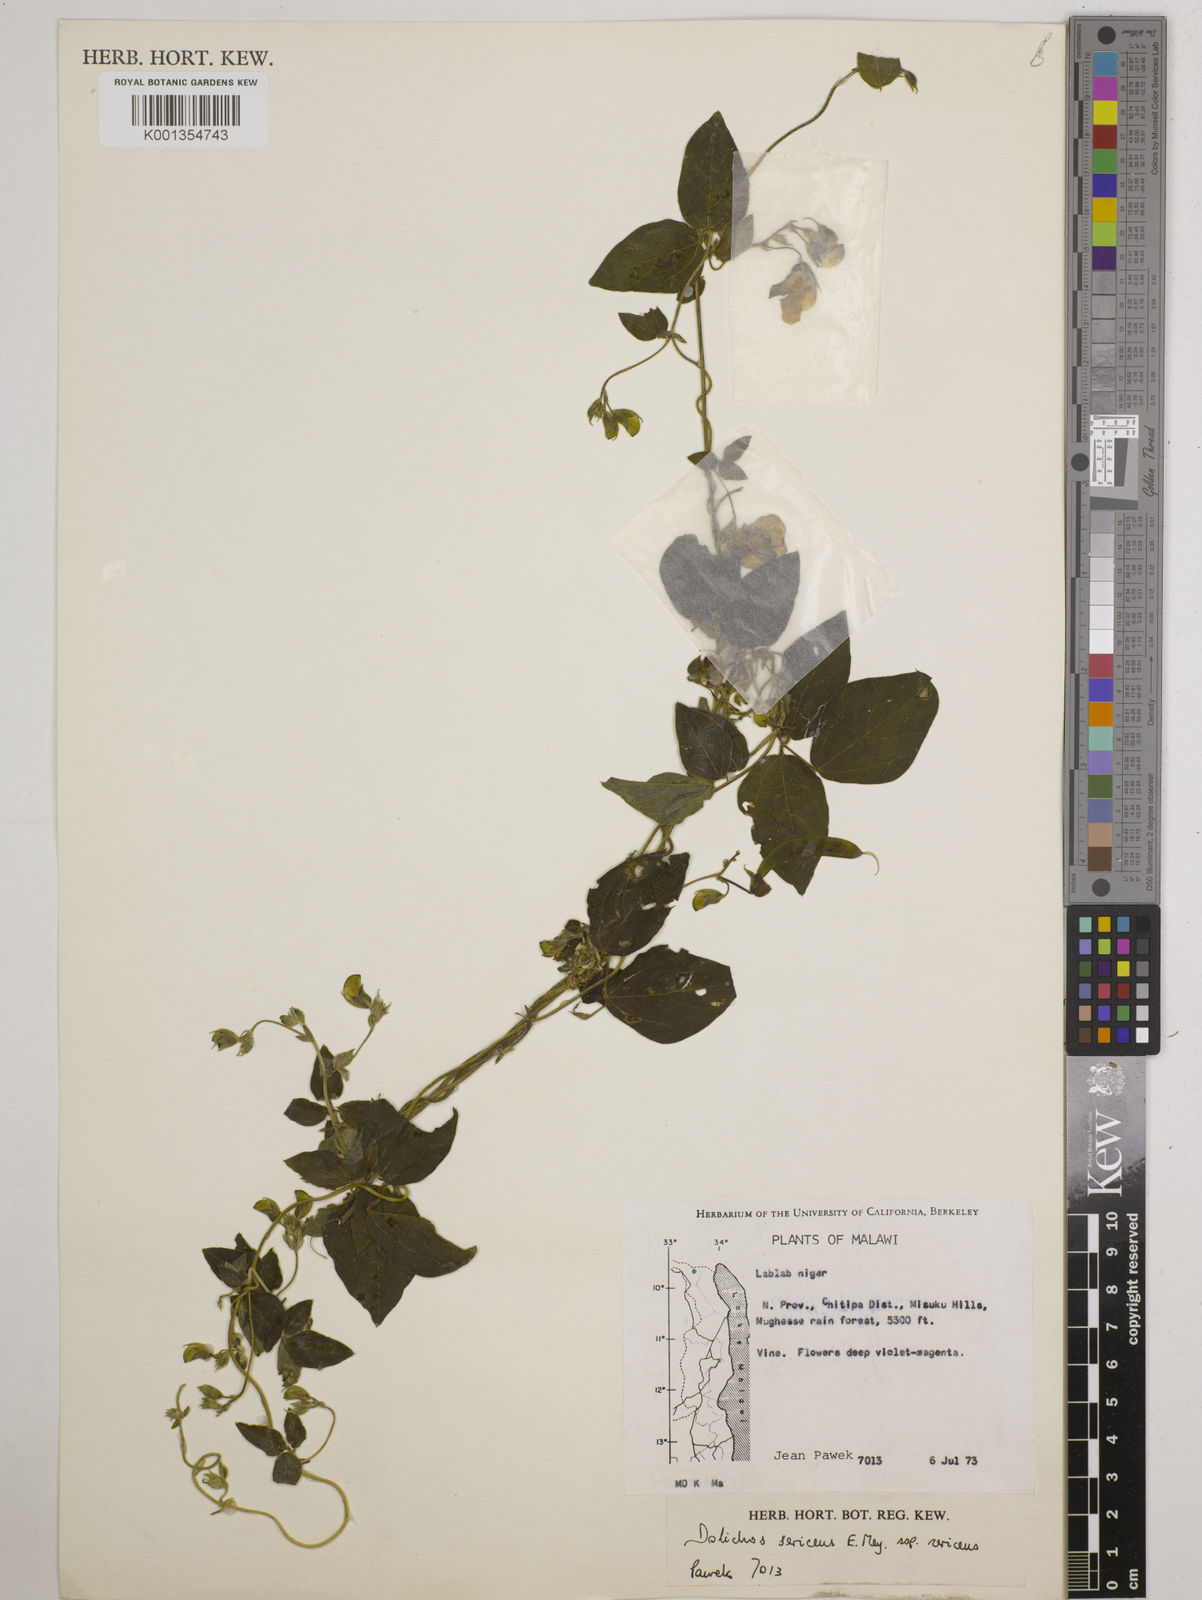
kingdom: Plantae
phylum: Tracheophyta
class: Magnoliopsida
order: Fabales
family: Fabaceae
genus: Dolichos
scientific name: Dolichos
